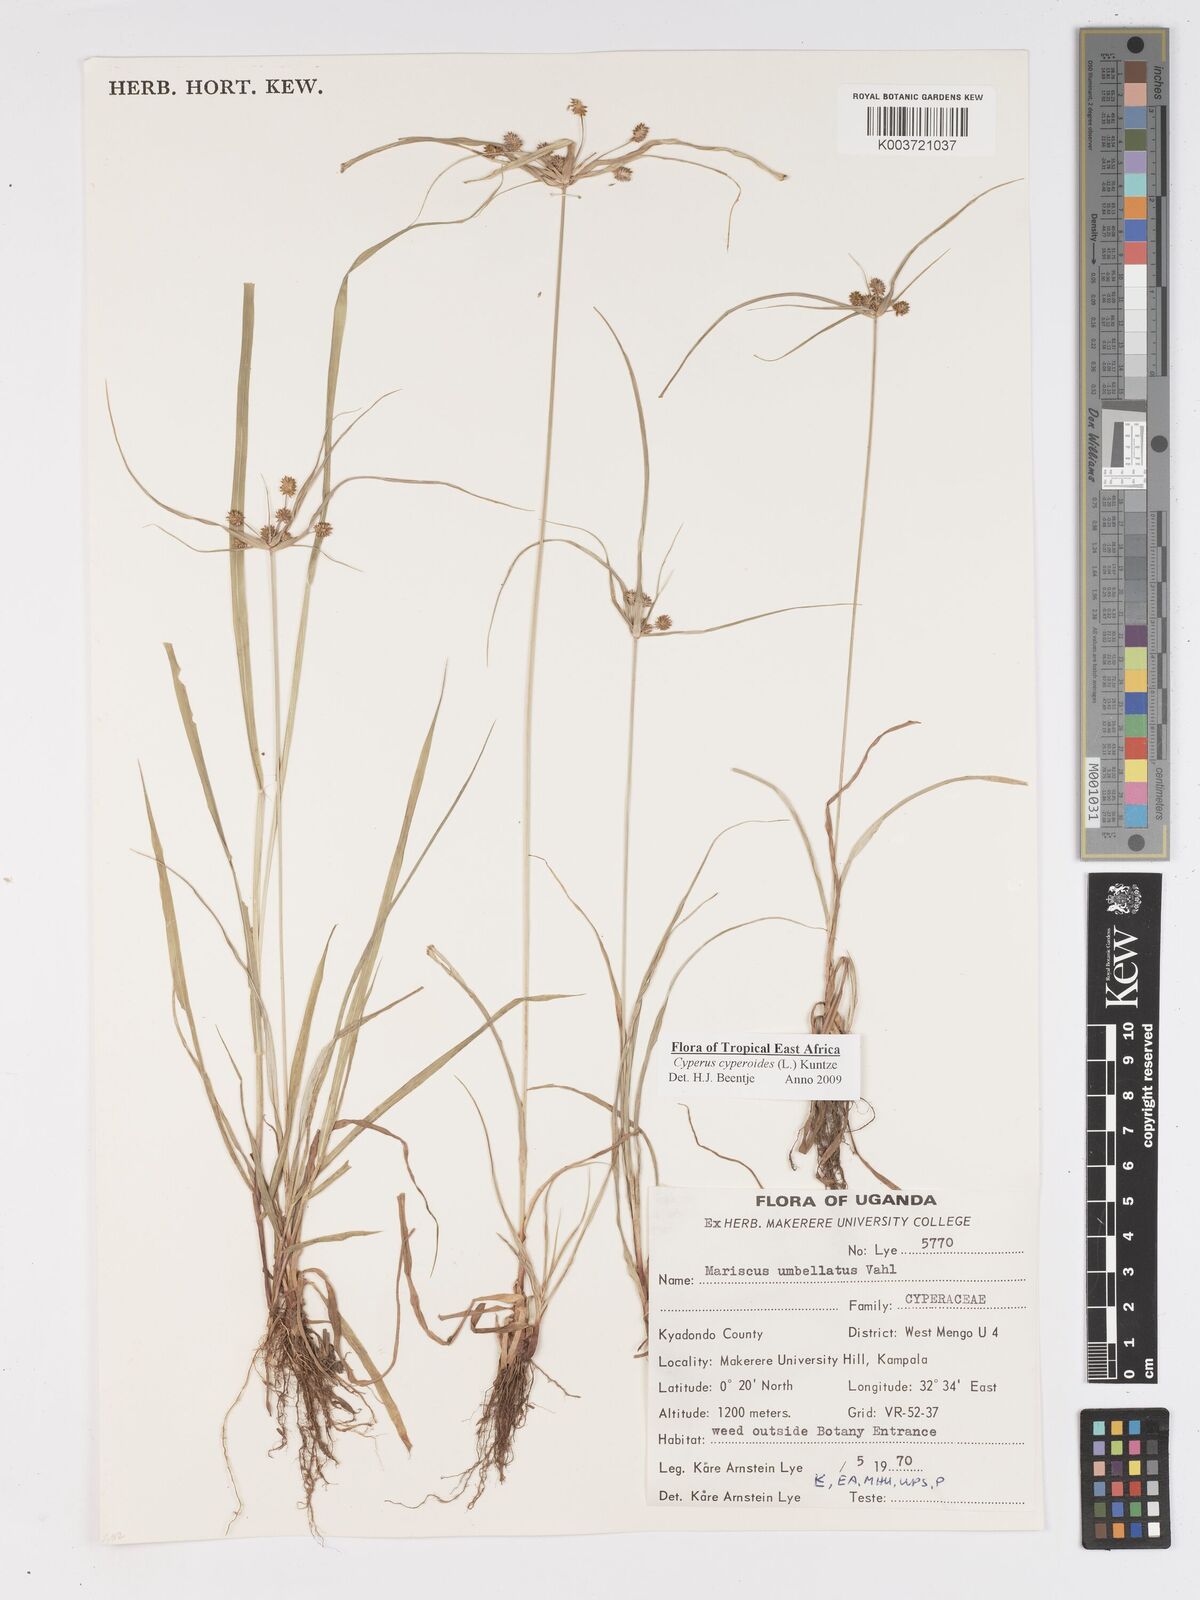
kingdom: Plantae
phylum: Tracheophyta
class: Liliopsida
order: Poales
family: Cyperaceae
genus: Cyperus
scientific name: Cyperus cyperoides
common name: Pacific island flat sedge
